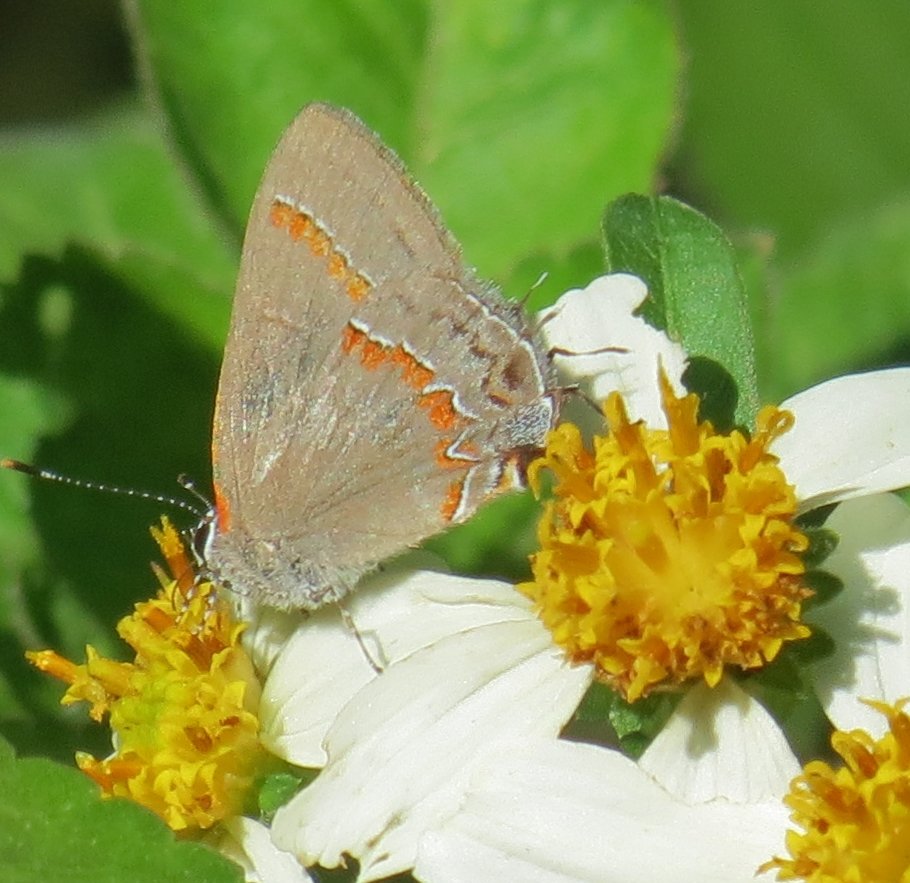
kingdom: Animalia
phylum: Arthropoda
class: Insecta
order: Lepidoptera
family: Lycaenidae
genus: Calycopis
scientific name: Calycopis cecrops
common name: Red-banded Hairstreak
